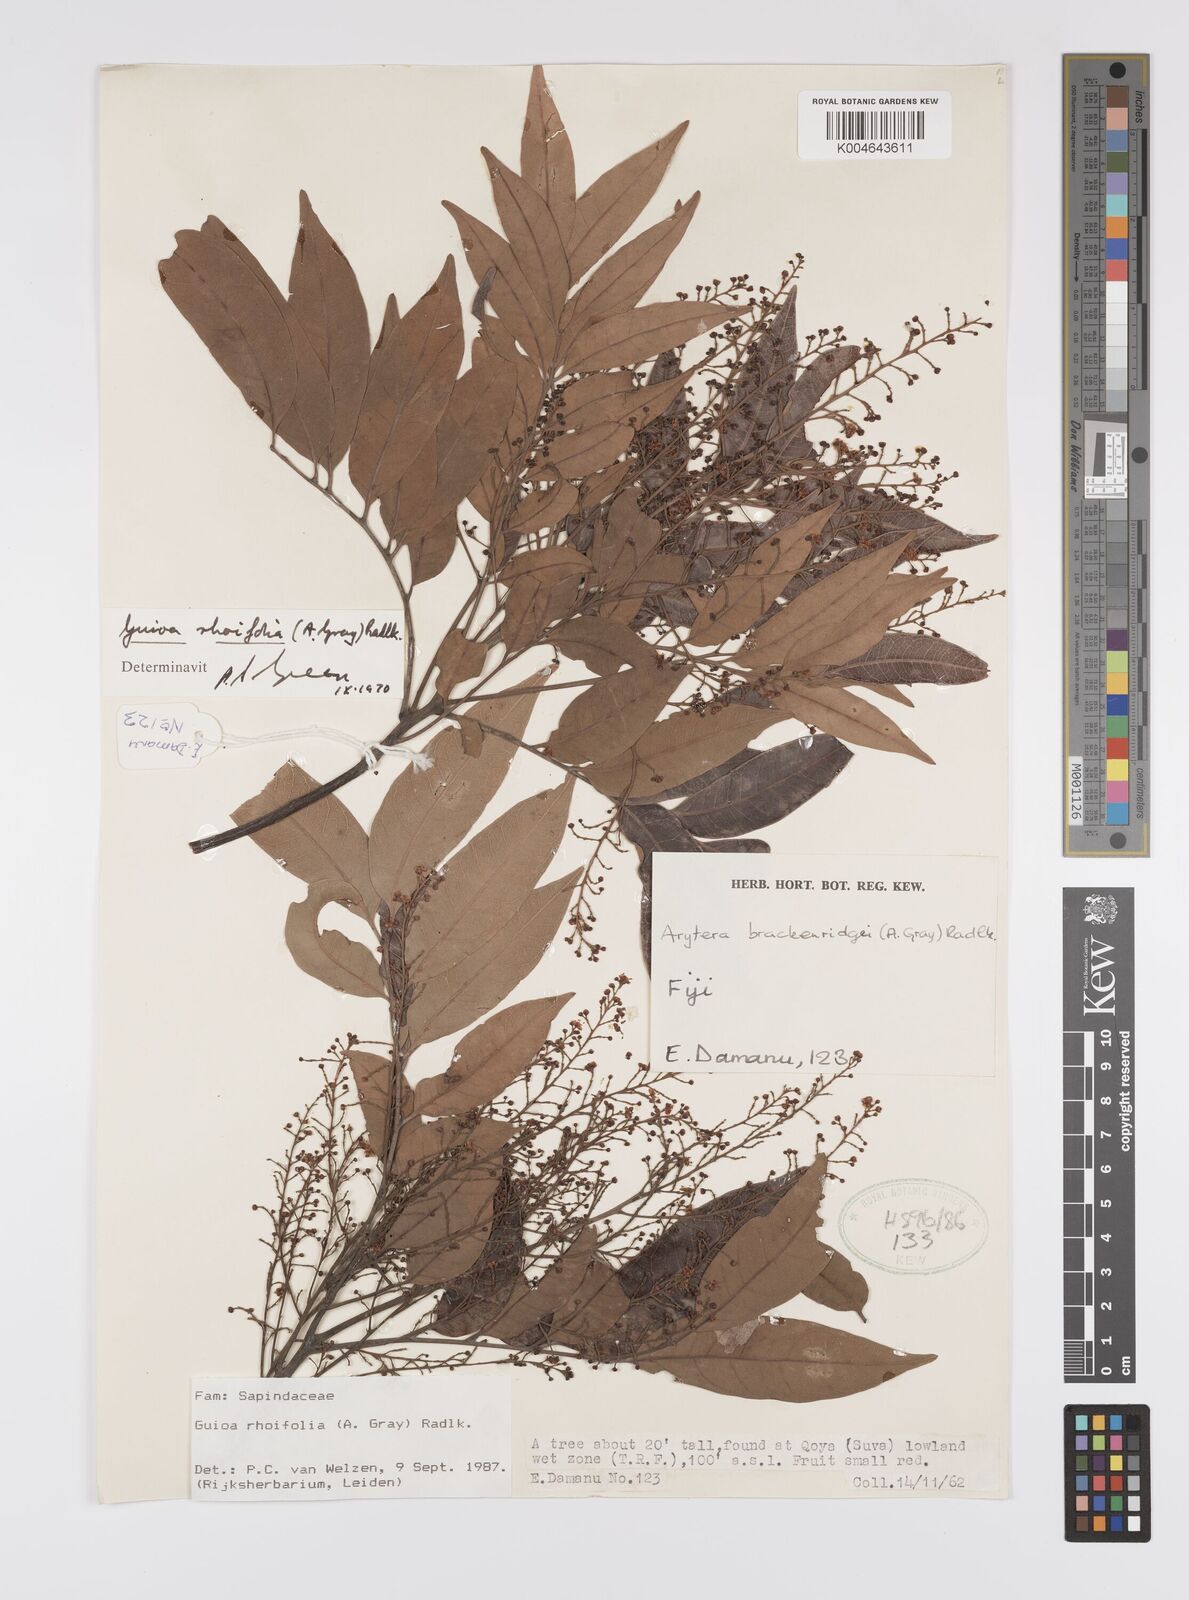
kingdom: Plantae
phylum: Tracheophyta
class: Magnoliopsida
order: Sapindales
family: Sapindaceae
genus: Guioa
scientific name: Guioa rhoifolia
